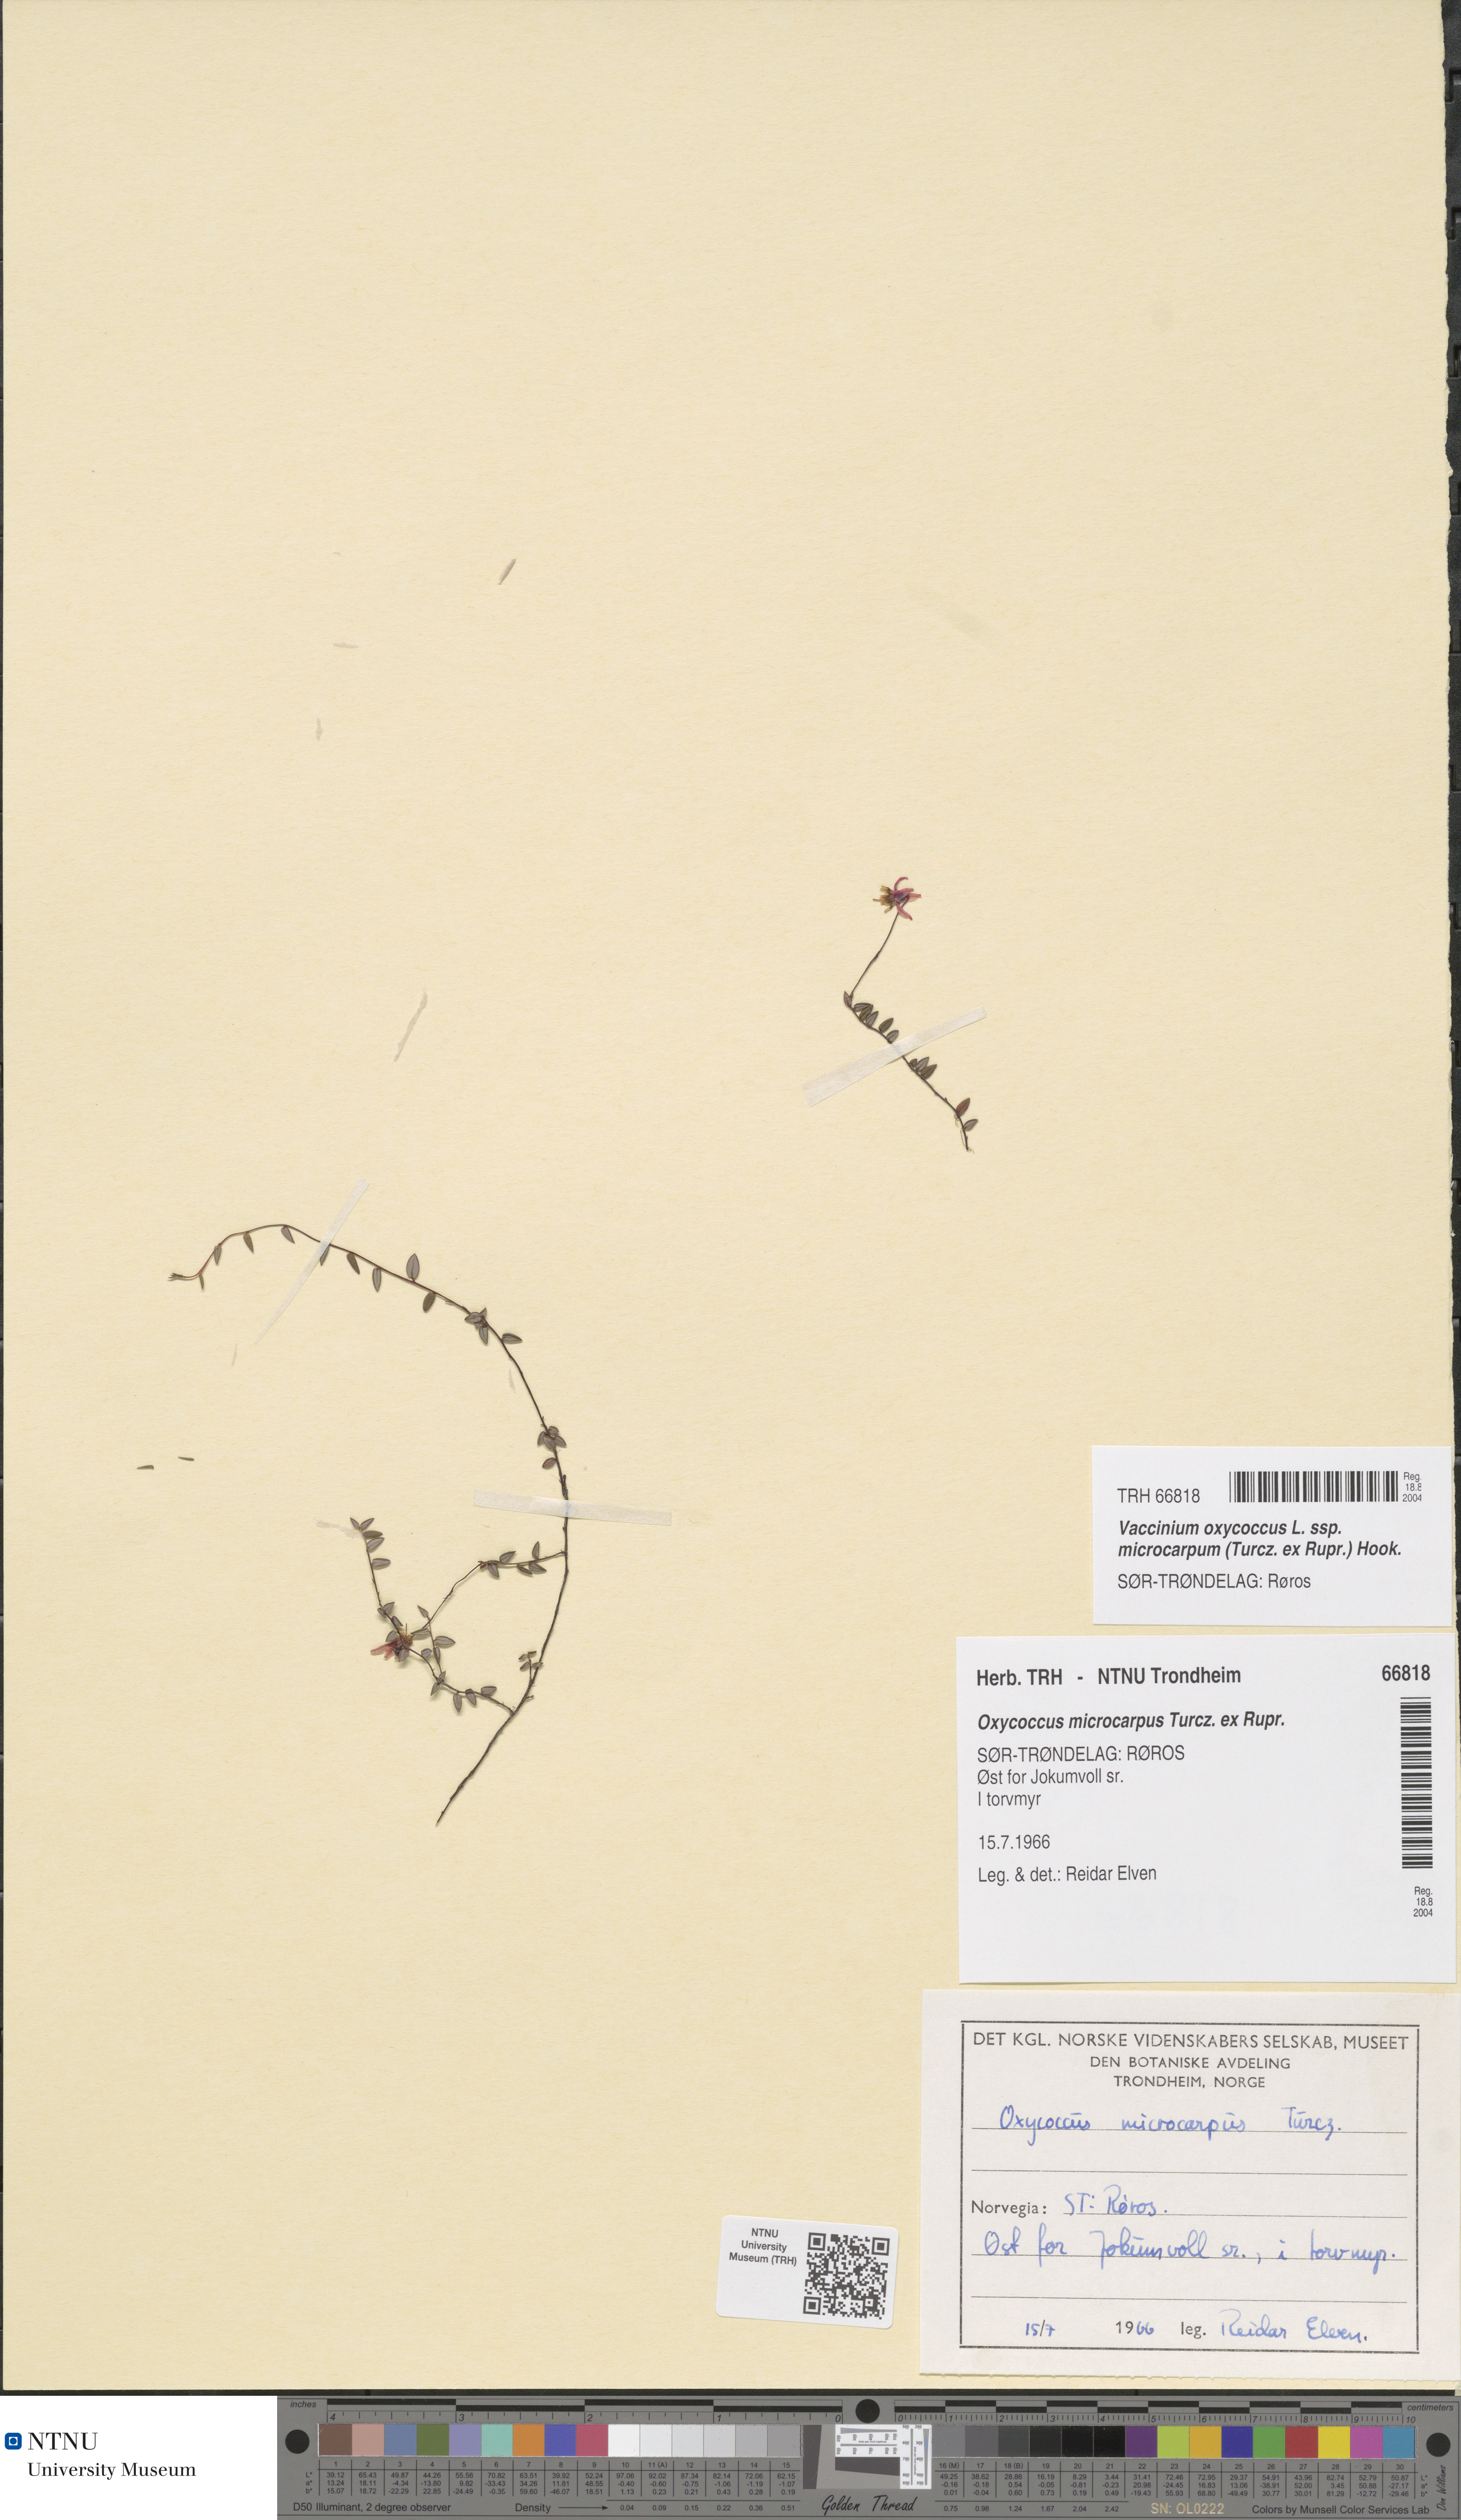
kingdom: Plantae
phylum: Tracheophyta
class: Magnoliopsida
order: Ericales
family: Ericaceae
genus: Vaccinium
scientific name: Vaccinium microcarpum
